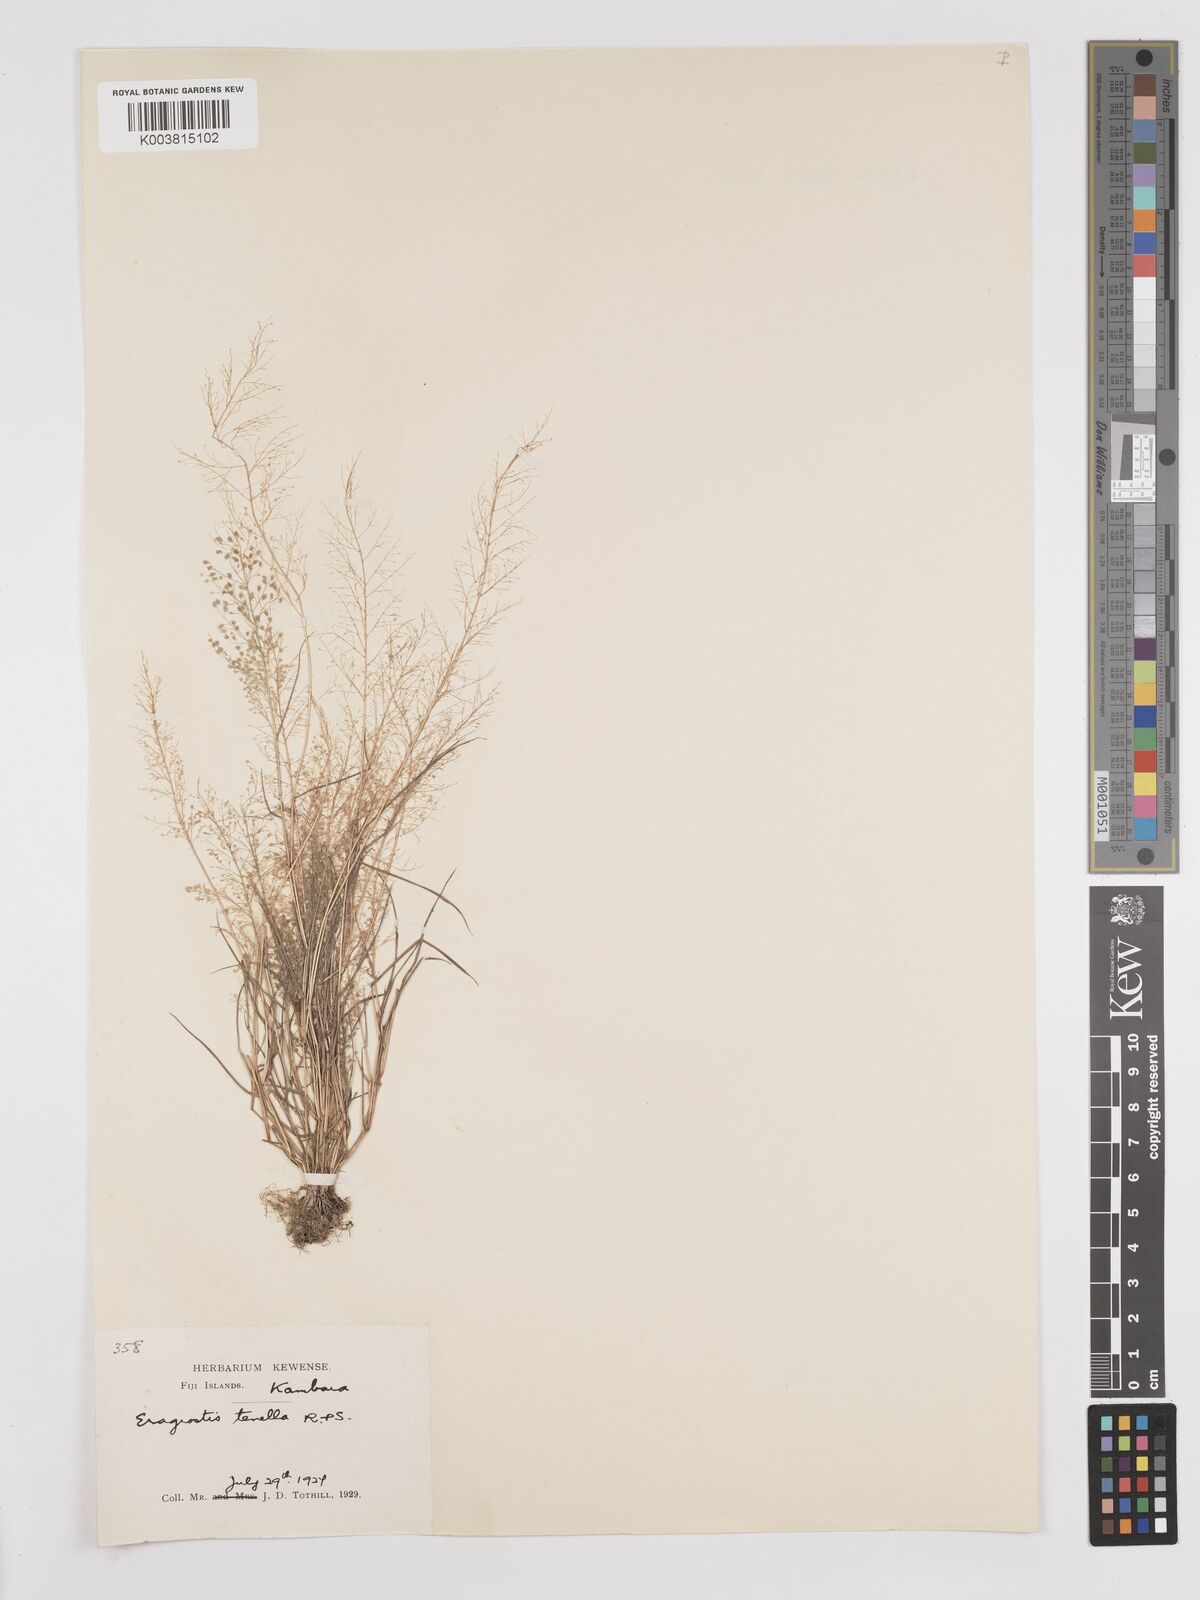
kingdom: Plantae
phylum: Tracheophyta
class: Liliopsida
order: Poales
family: Poaceae
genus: Eragrostis
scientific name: Eragrostis tenella
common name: Japanese lovegrass
